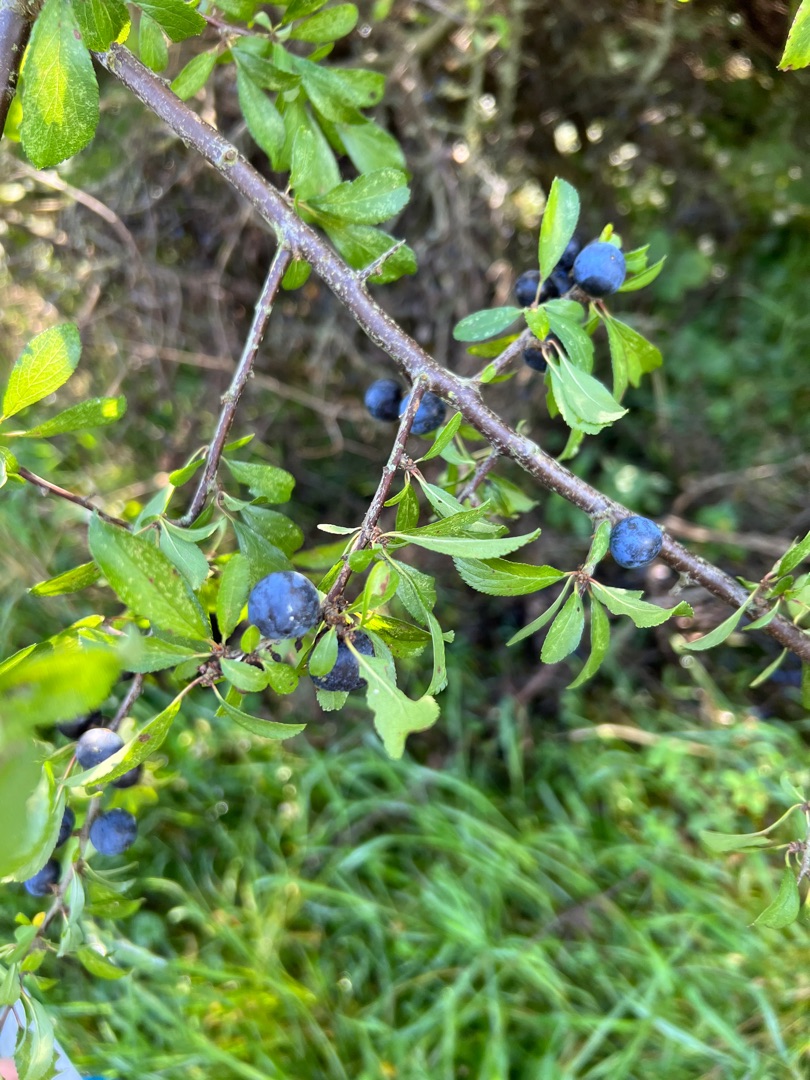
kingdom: Plantae
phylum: Tracheophyta
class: Magnoliopsida
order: Rosales
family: Rosaceae
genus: Prunus
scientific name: Prunus spinosa
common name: Slåen
